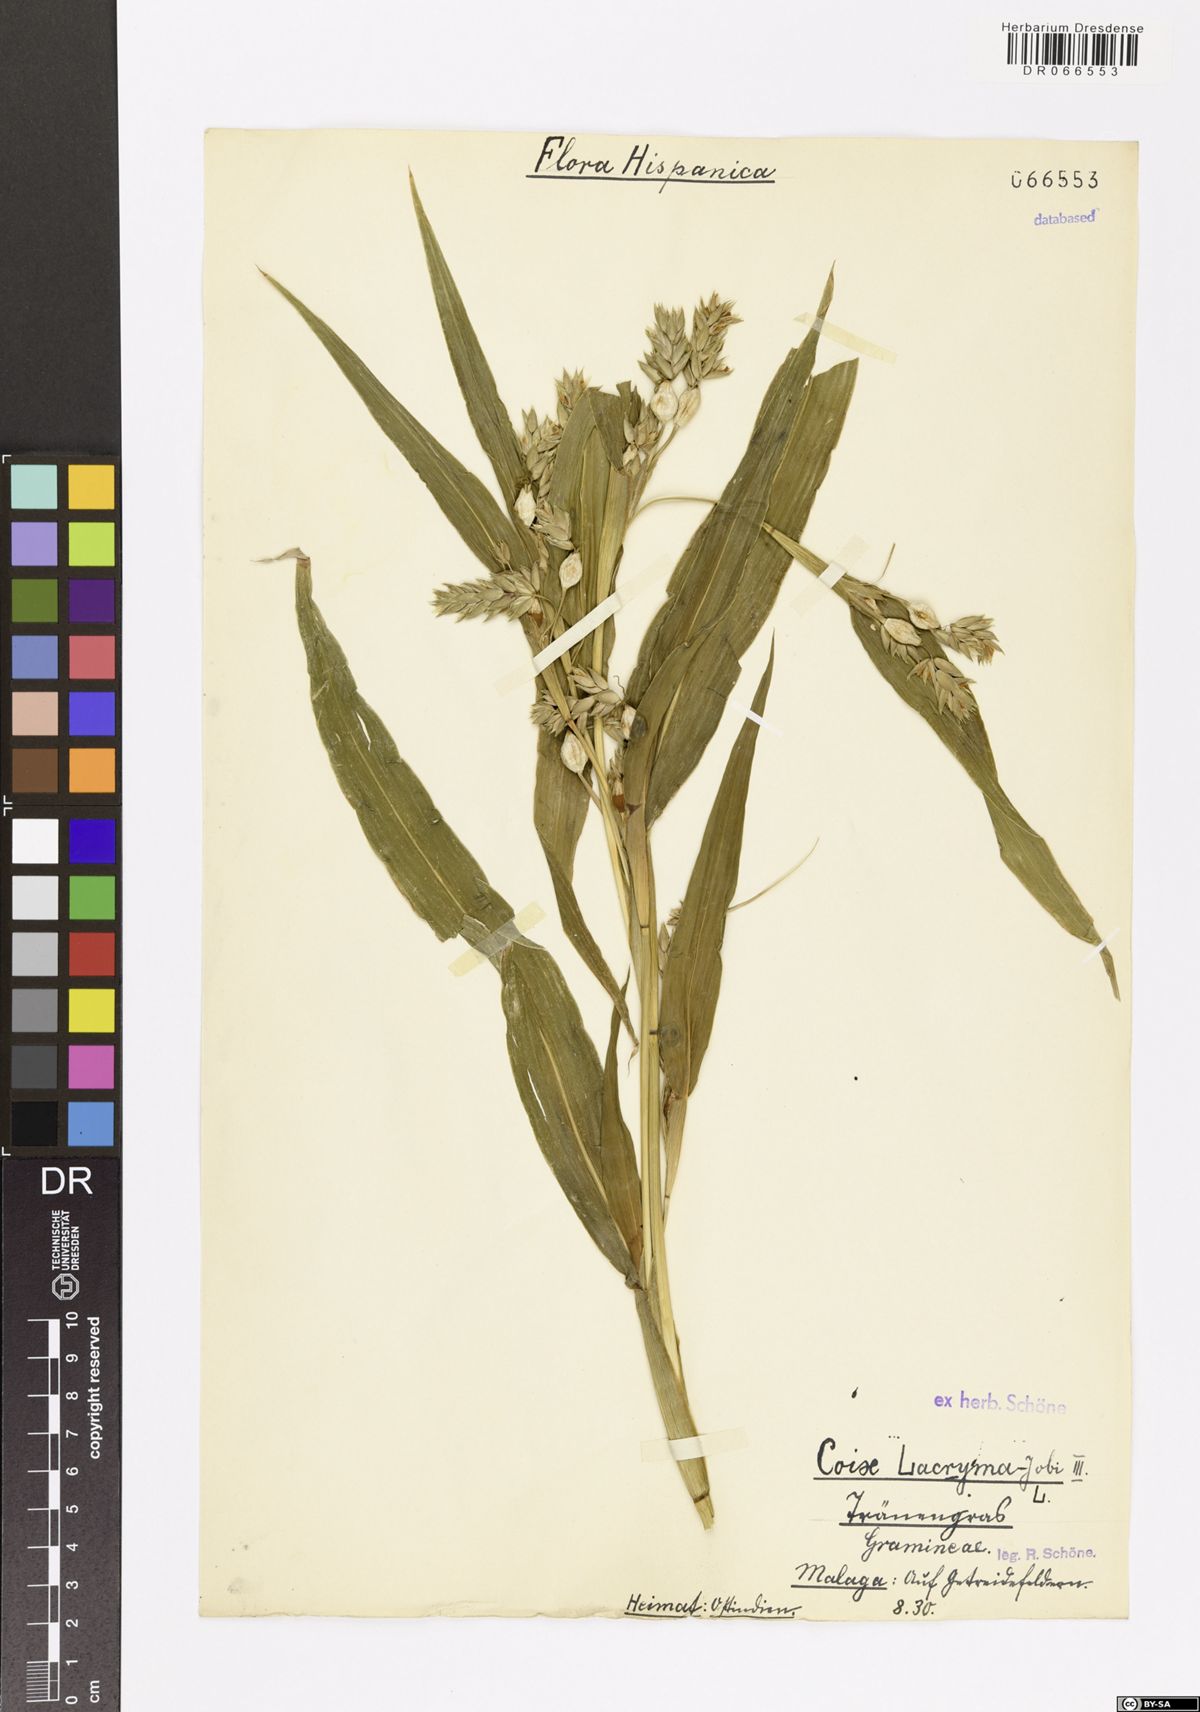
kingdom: Plantae
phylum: Tracheophyta
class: Liliopsida
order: Poales
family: Poaceae
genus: Coix
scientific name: Coix lacryma-jobi
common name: Job's tears
